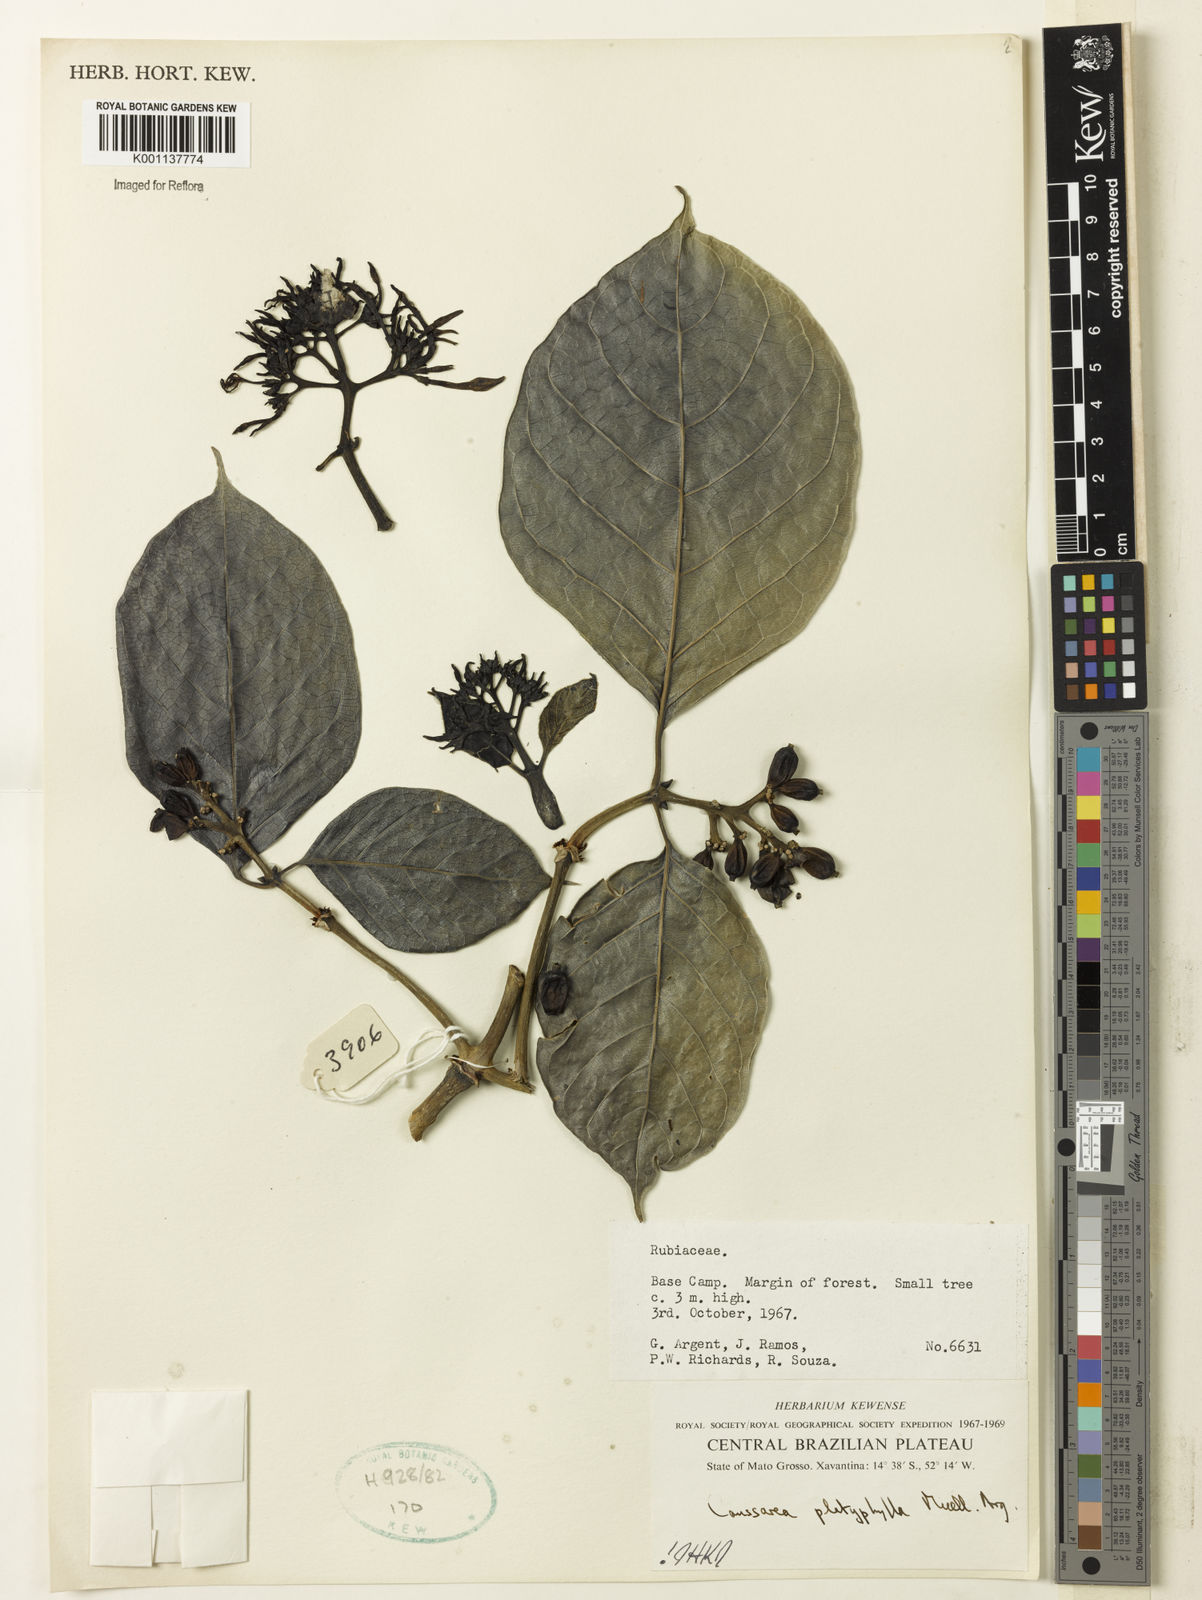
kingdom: Plantae
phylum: Tracheophyta
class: Magnoliopsida
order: Gentianales
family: Rubiaceae
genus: Coussarea
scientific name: Coussarea
